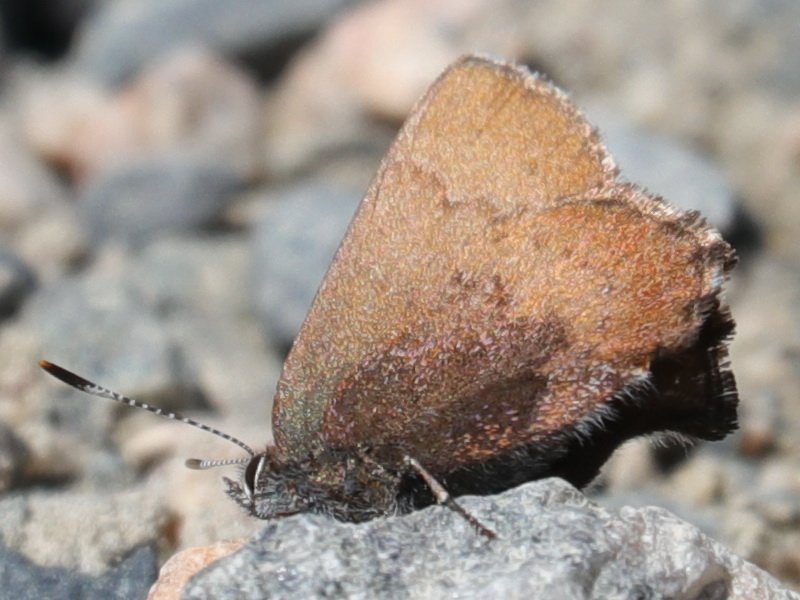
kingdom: Animalia
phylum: Arthropoda
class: Insecta
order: Lepidoptera
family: Lycaenidae
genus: Incisalia
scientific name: Incisalia irioides
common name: Brown Elfin
